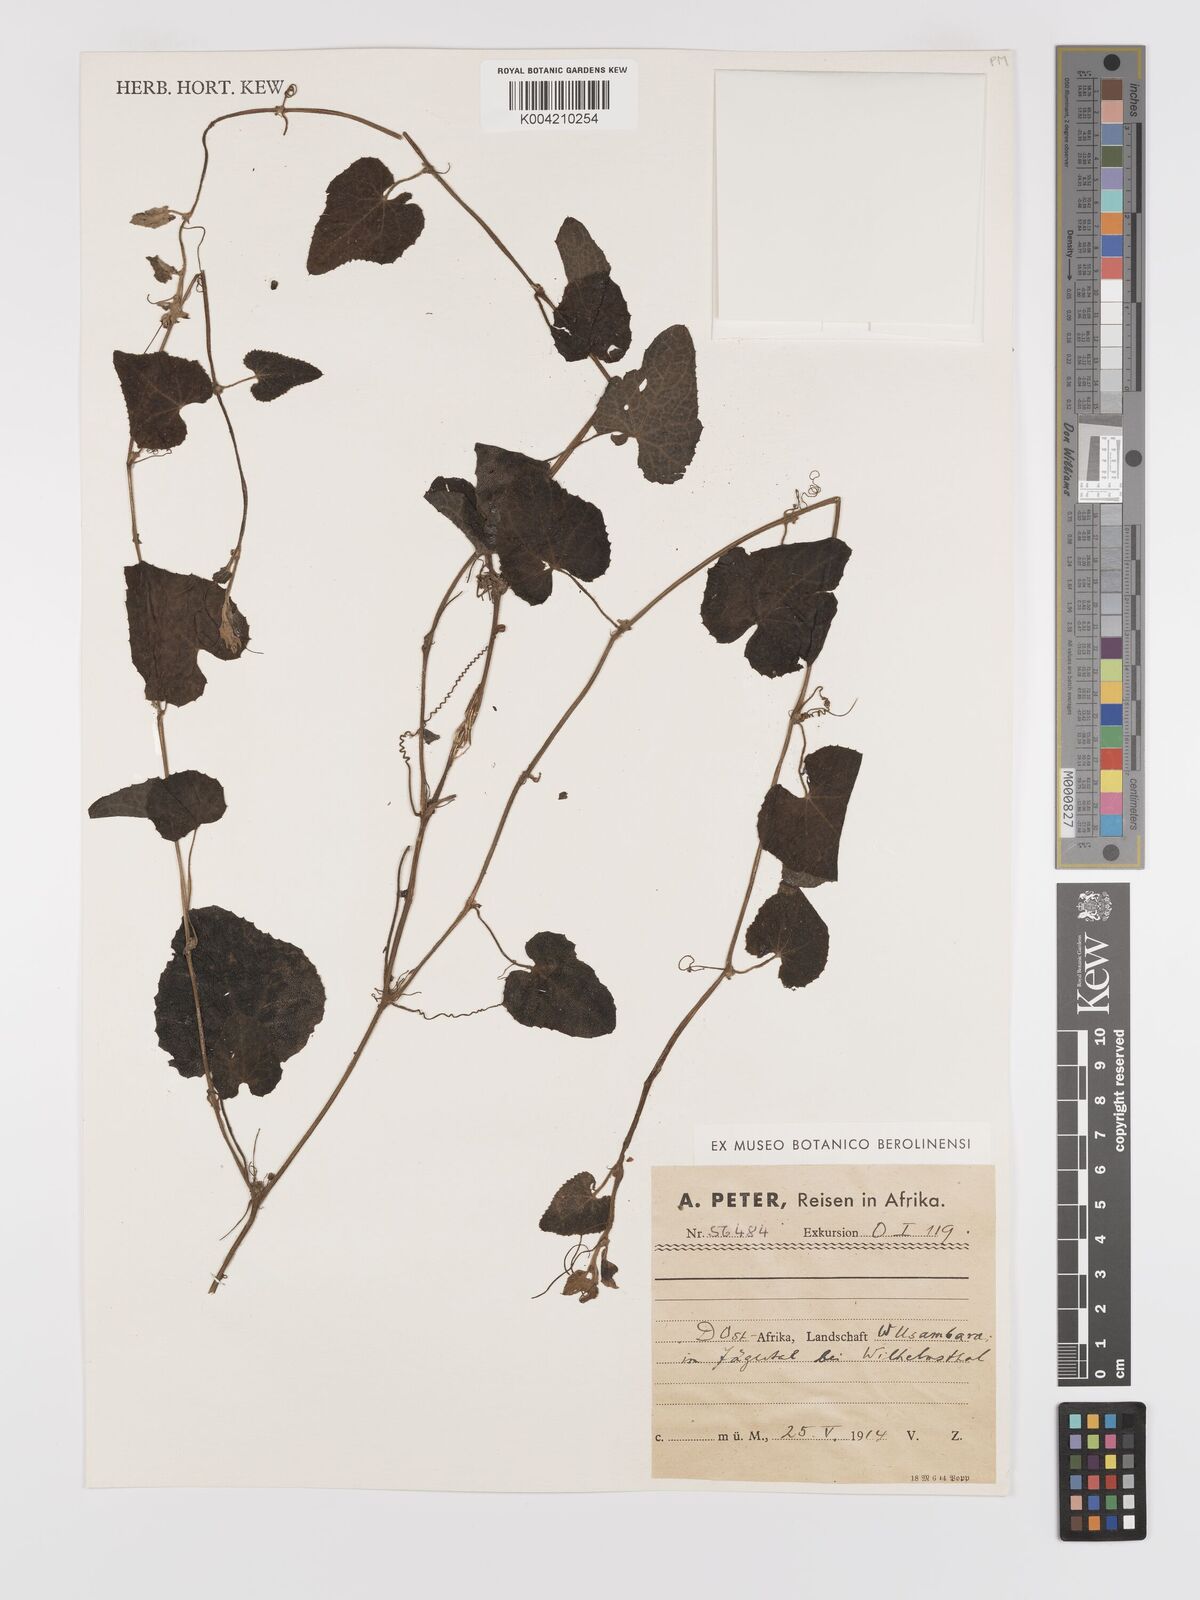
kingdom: Plantae
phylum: Tracheophyta
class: Magnoliopsida
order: Cucurbitales
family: Cucurbitaceae
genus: Zehneria
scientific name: Zehneria scabra
